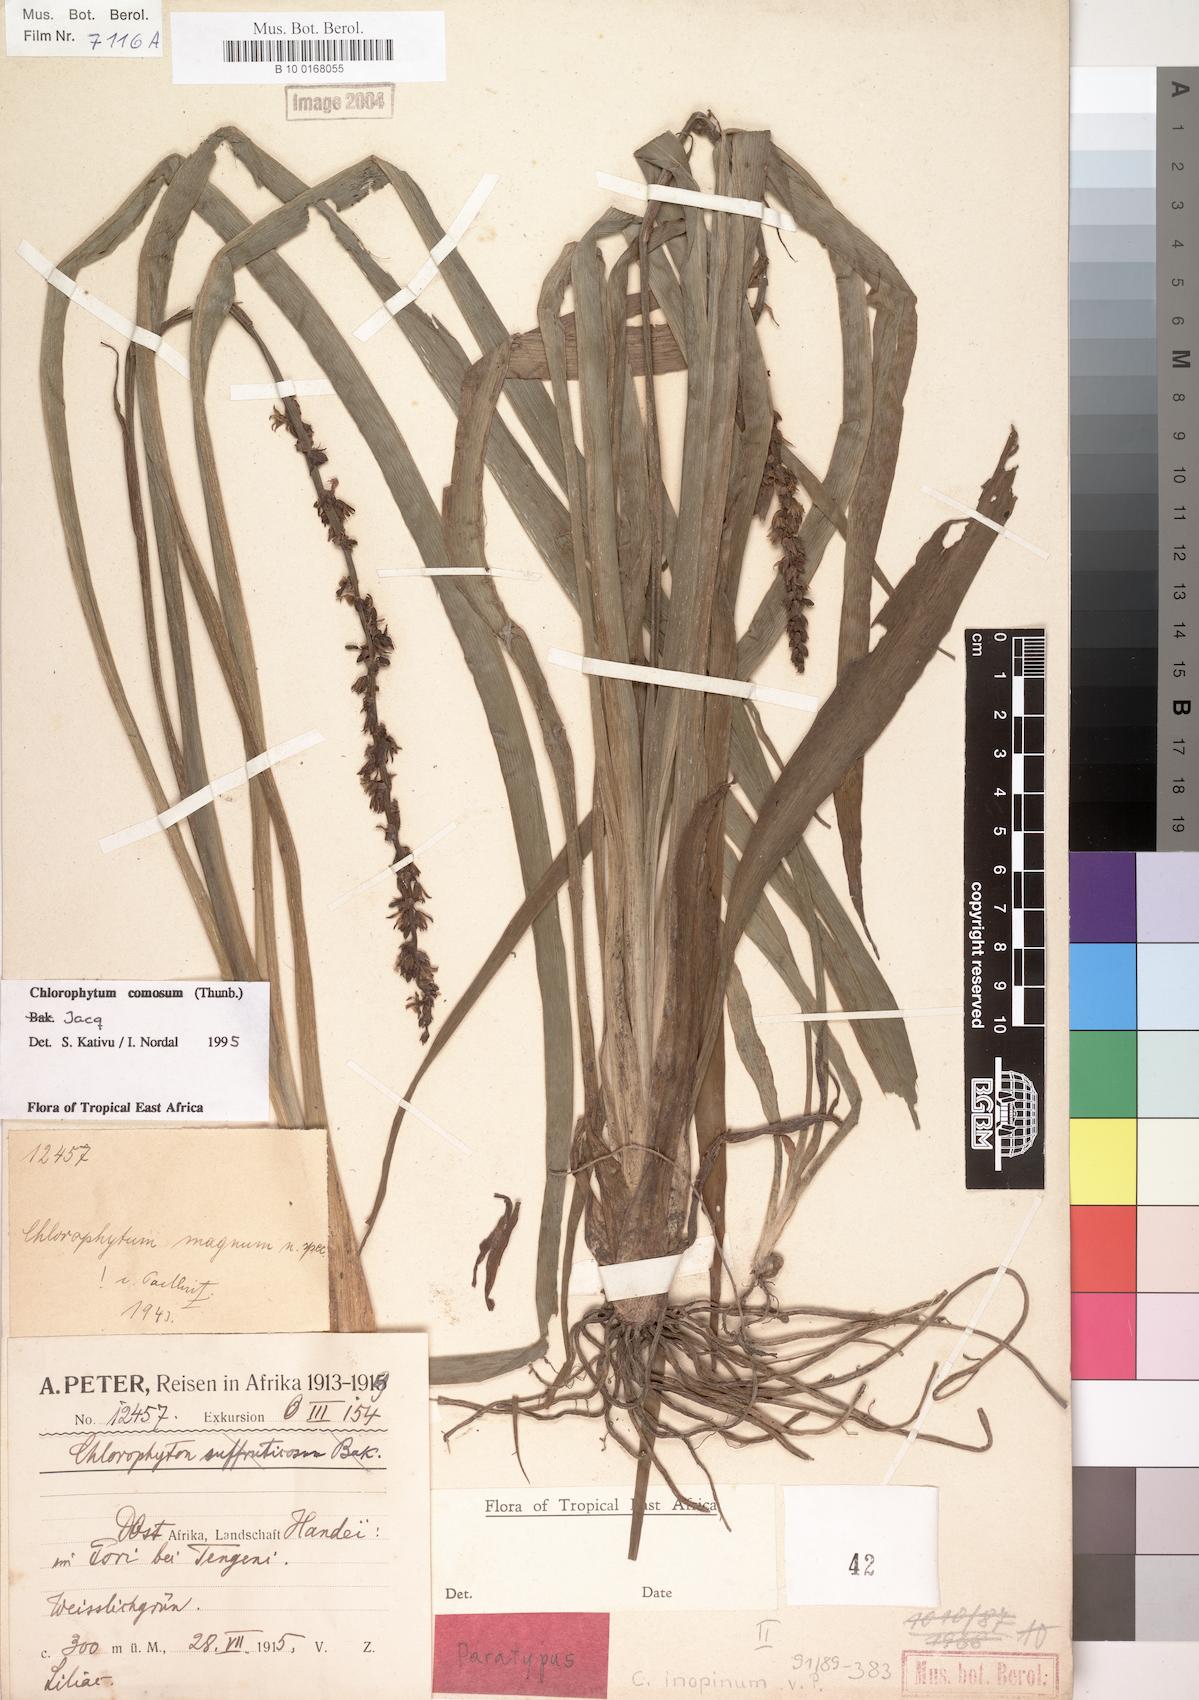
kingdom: Plantae
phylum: Tracheophyta
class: Liliopsida
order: Asparagales
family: Asparagaceae
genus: Chlorophytum
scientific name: Chlorophytum comosum
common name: Spider plant
